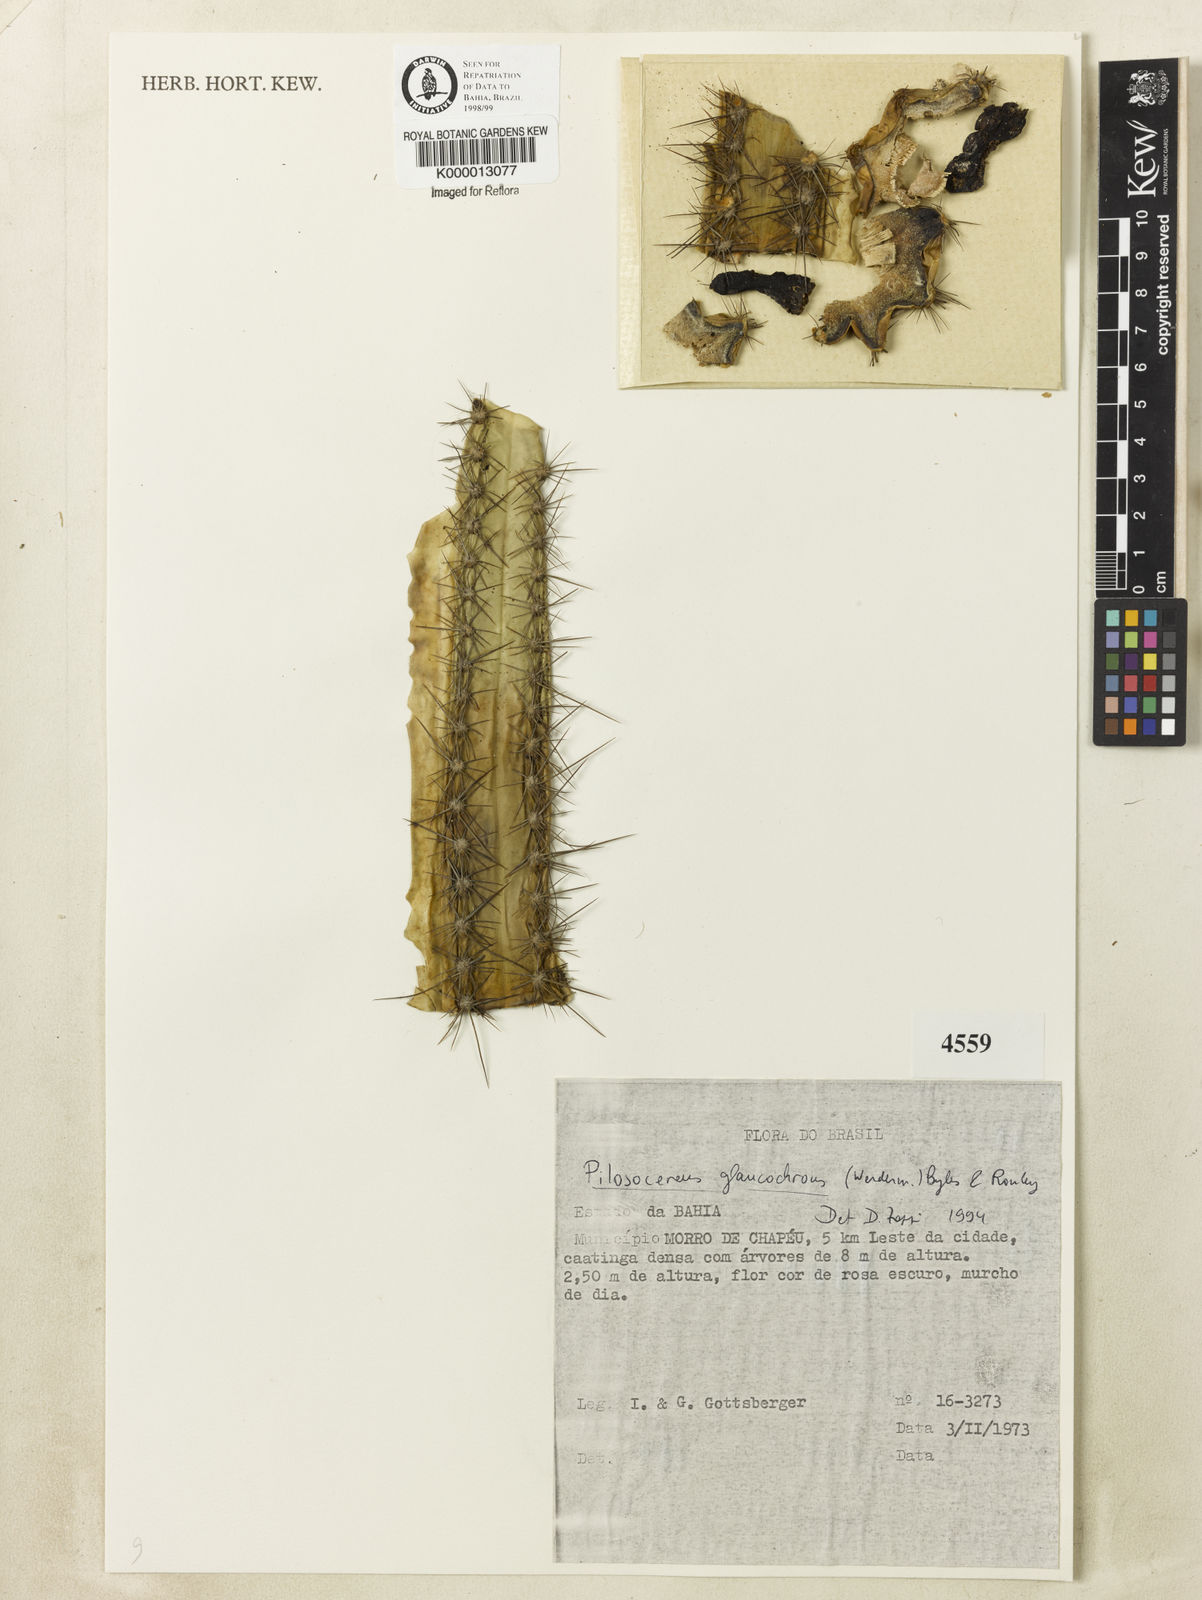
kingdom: Plantae
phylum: Tracheophyta
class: Magnoliopsida
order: Caryophyllales
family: Cactaceae
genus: Pilosocereus
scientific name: Pilosocereus glaucochrous
